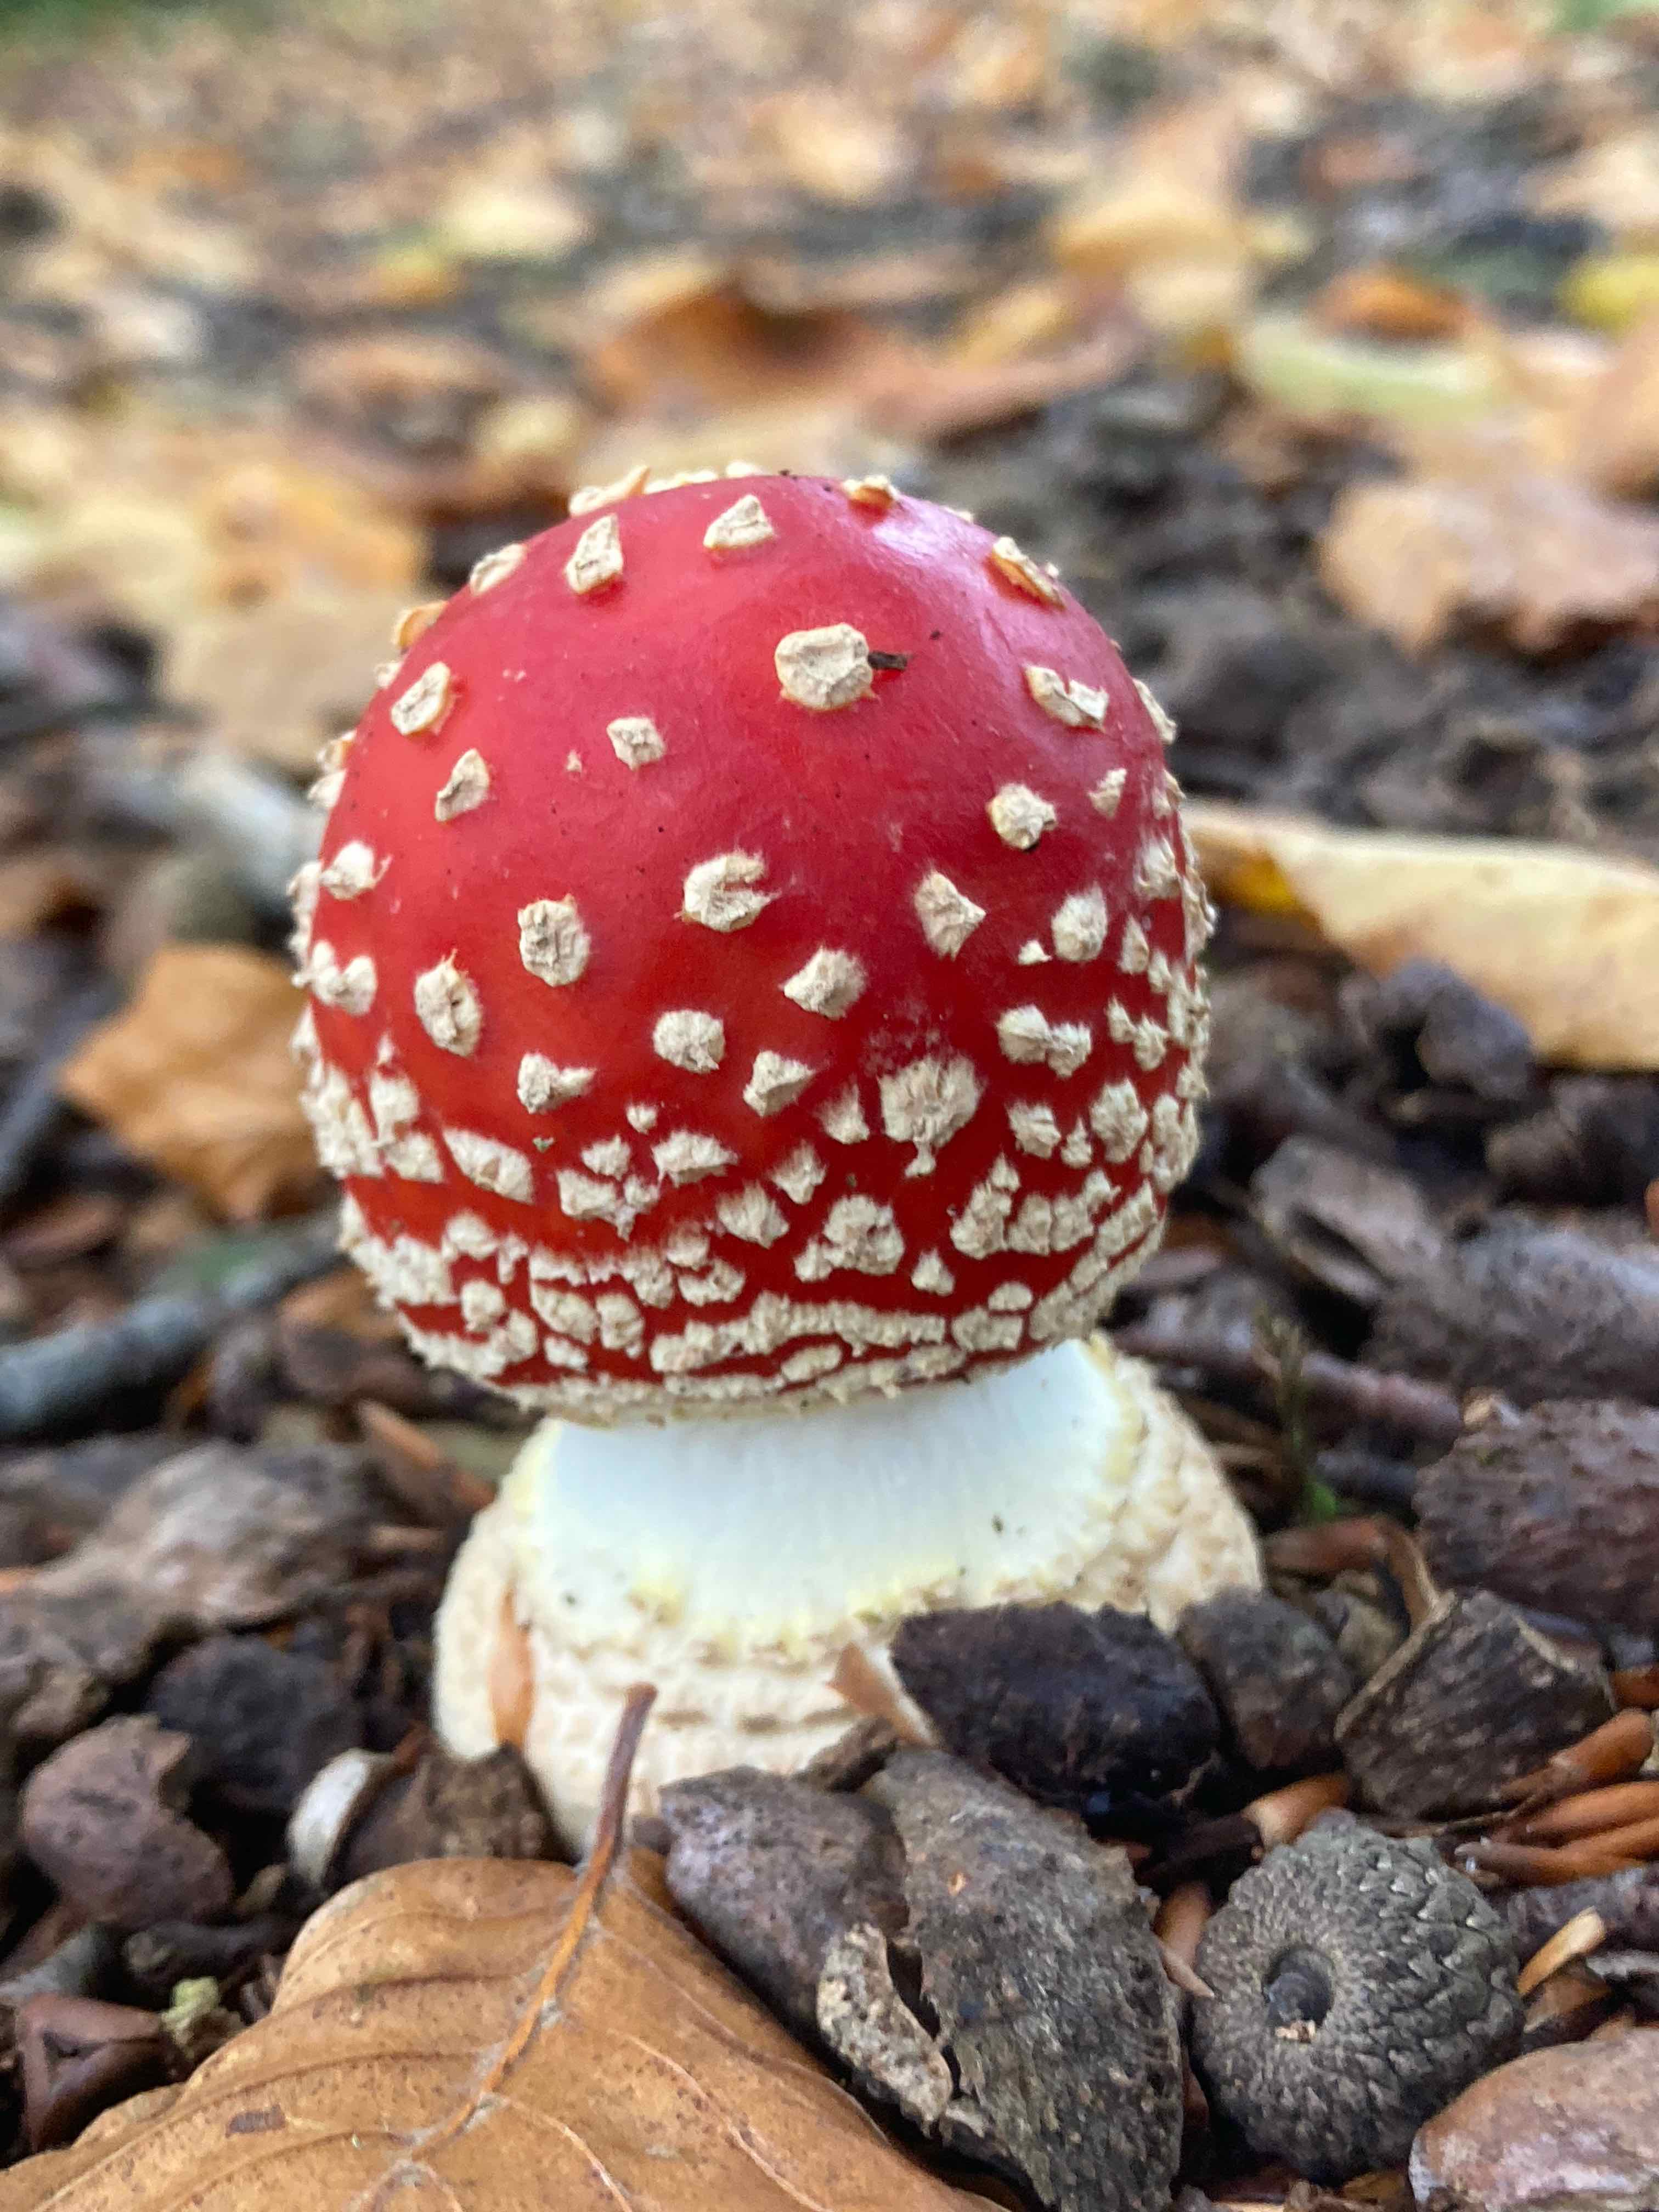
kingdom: Fungi
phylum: Basidiomycota
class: Agaricomycetes
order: Agaricales
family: Amanitaceae
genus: Amanita
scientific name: Amanita muscaria
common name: rød fluesvamp
